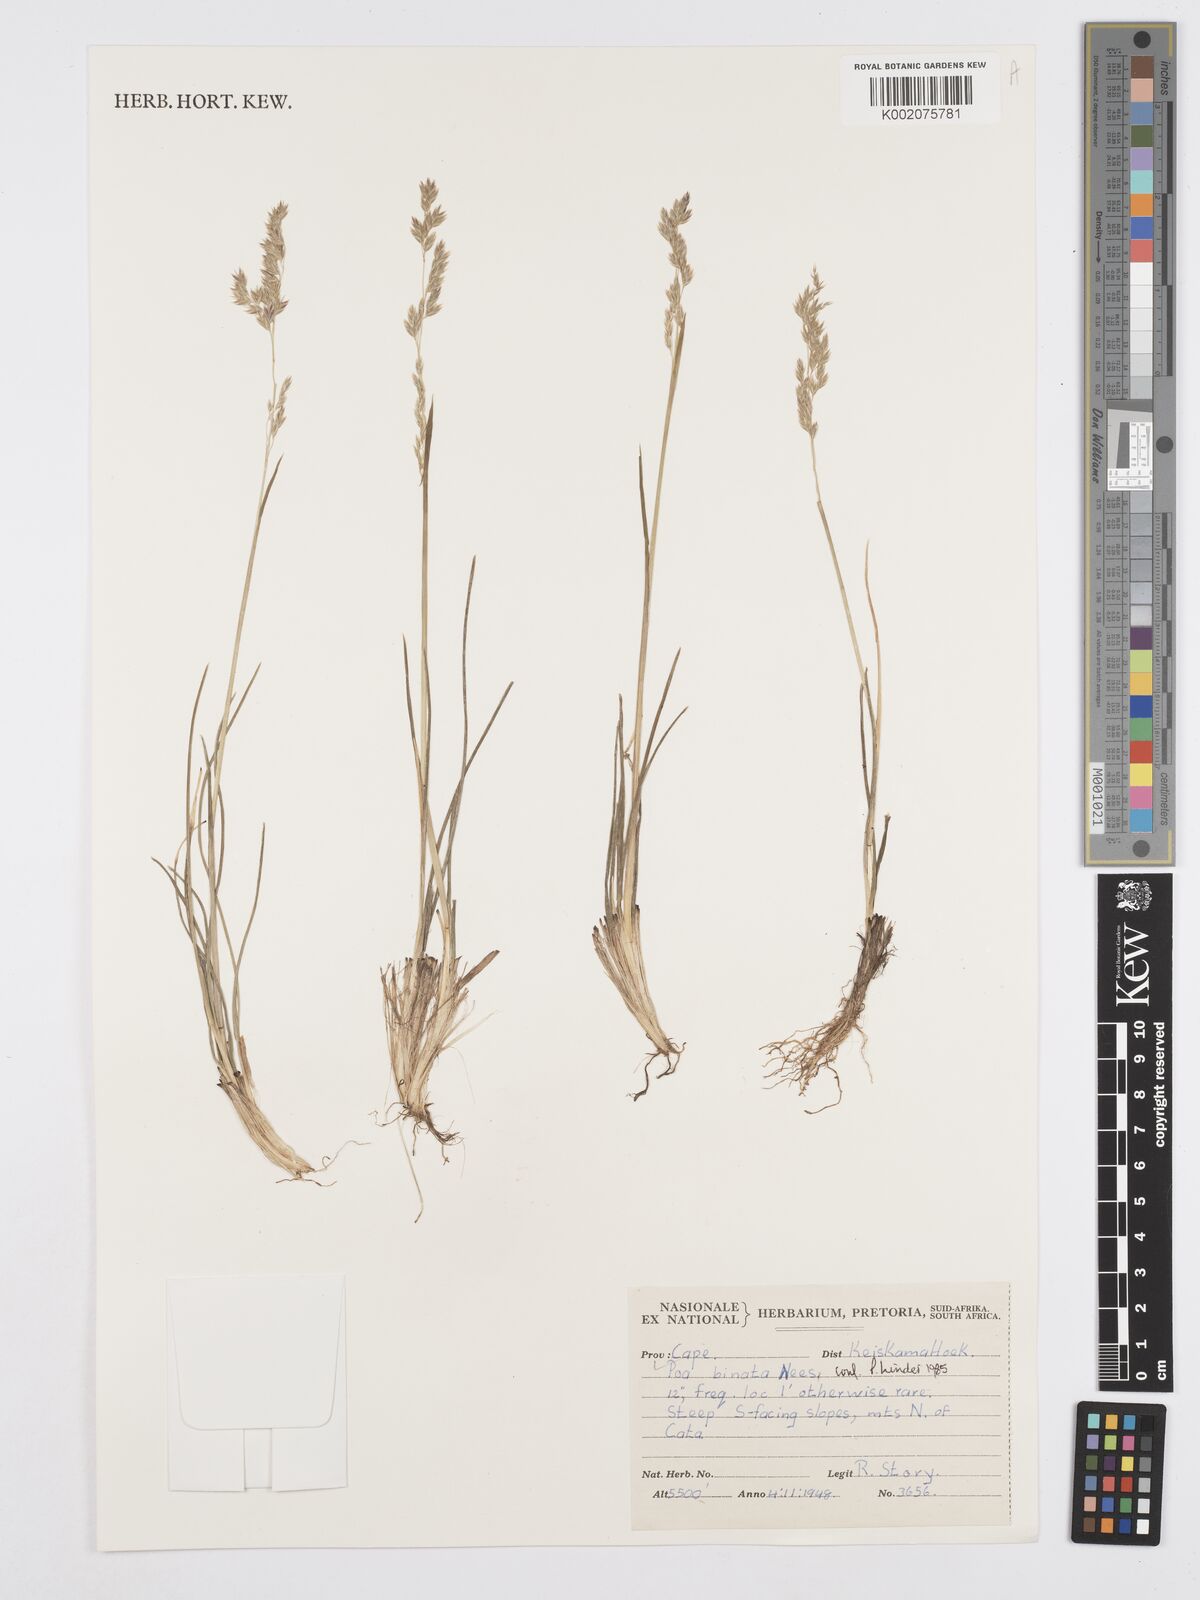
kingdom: Plantae
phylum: Tracheophyta
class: Liliopsida
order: Poales
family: Poaceae
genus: Poa
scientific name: Poa binata
